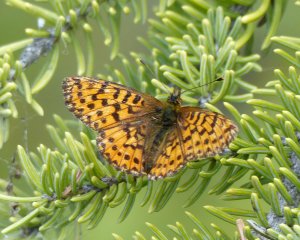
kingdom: Animalia
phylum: Arthropoda
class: Insecta
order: Lepidoptera
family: Nymphalidae
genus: Boloria
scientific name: Boloria chariclea
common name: Arctic Fritillary
